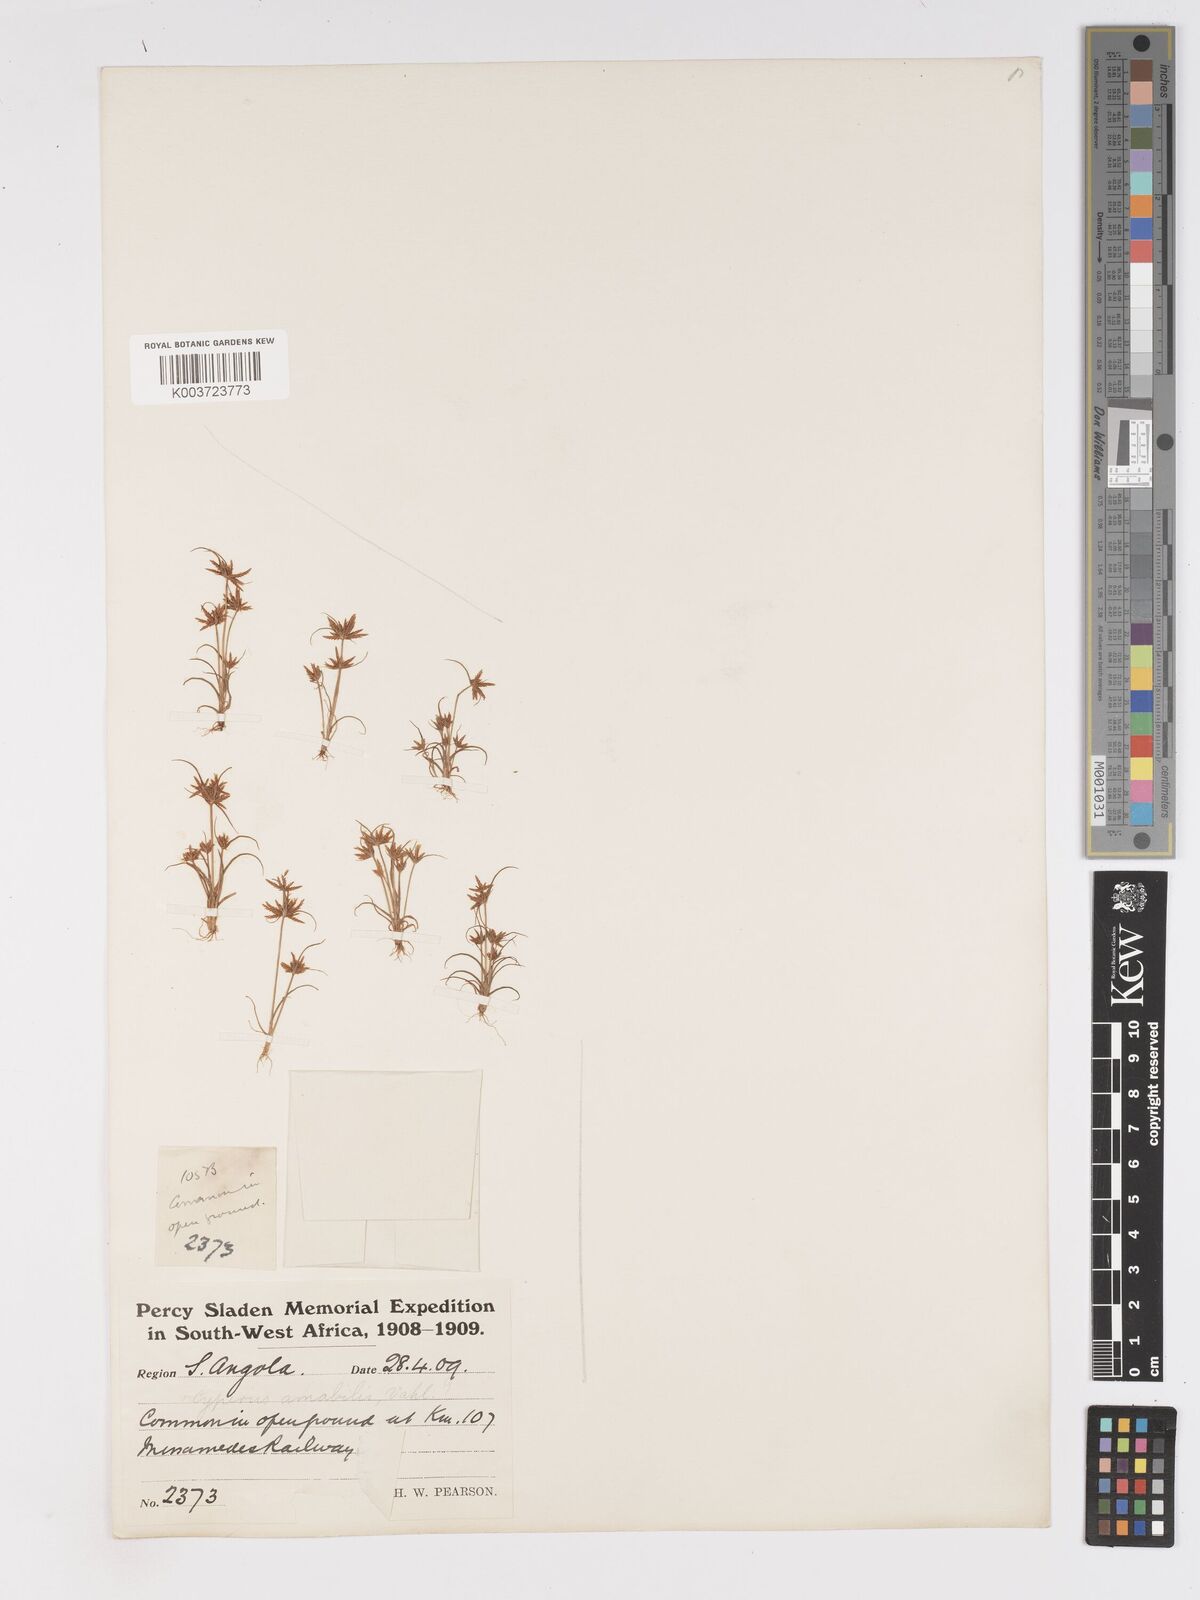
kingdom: Plantae
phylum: Tracheophyta
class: Liliopsida
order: Poales
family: Cyperaceae
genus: Cyperus
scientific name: Cyperus amabilis
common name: Foothill flat sedge
